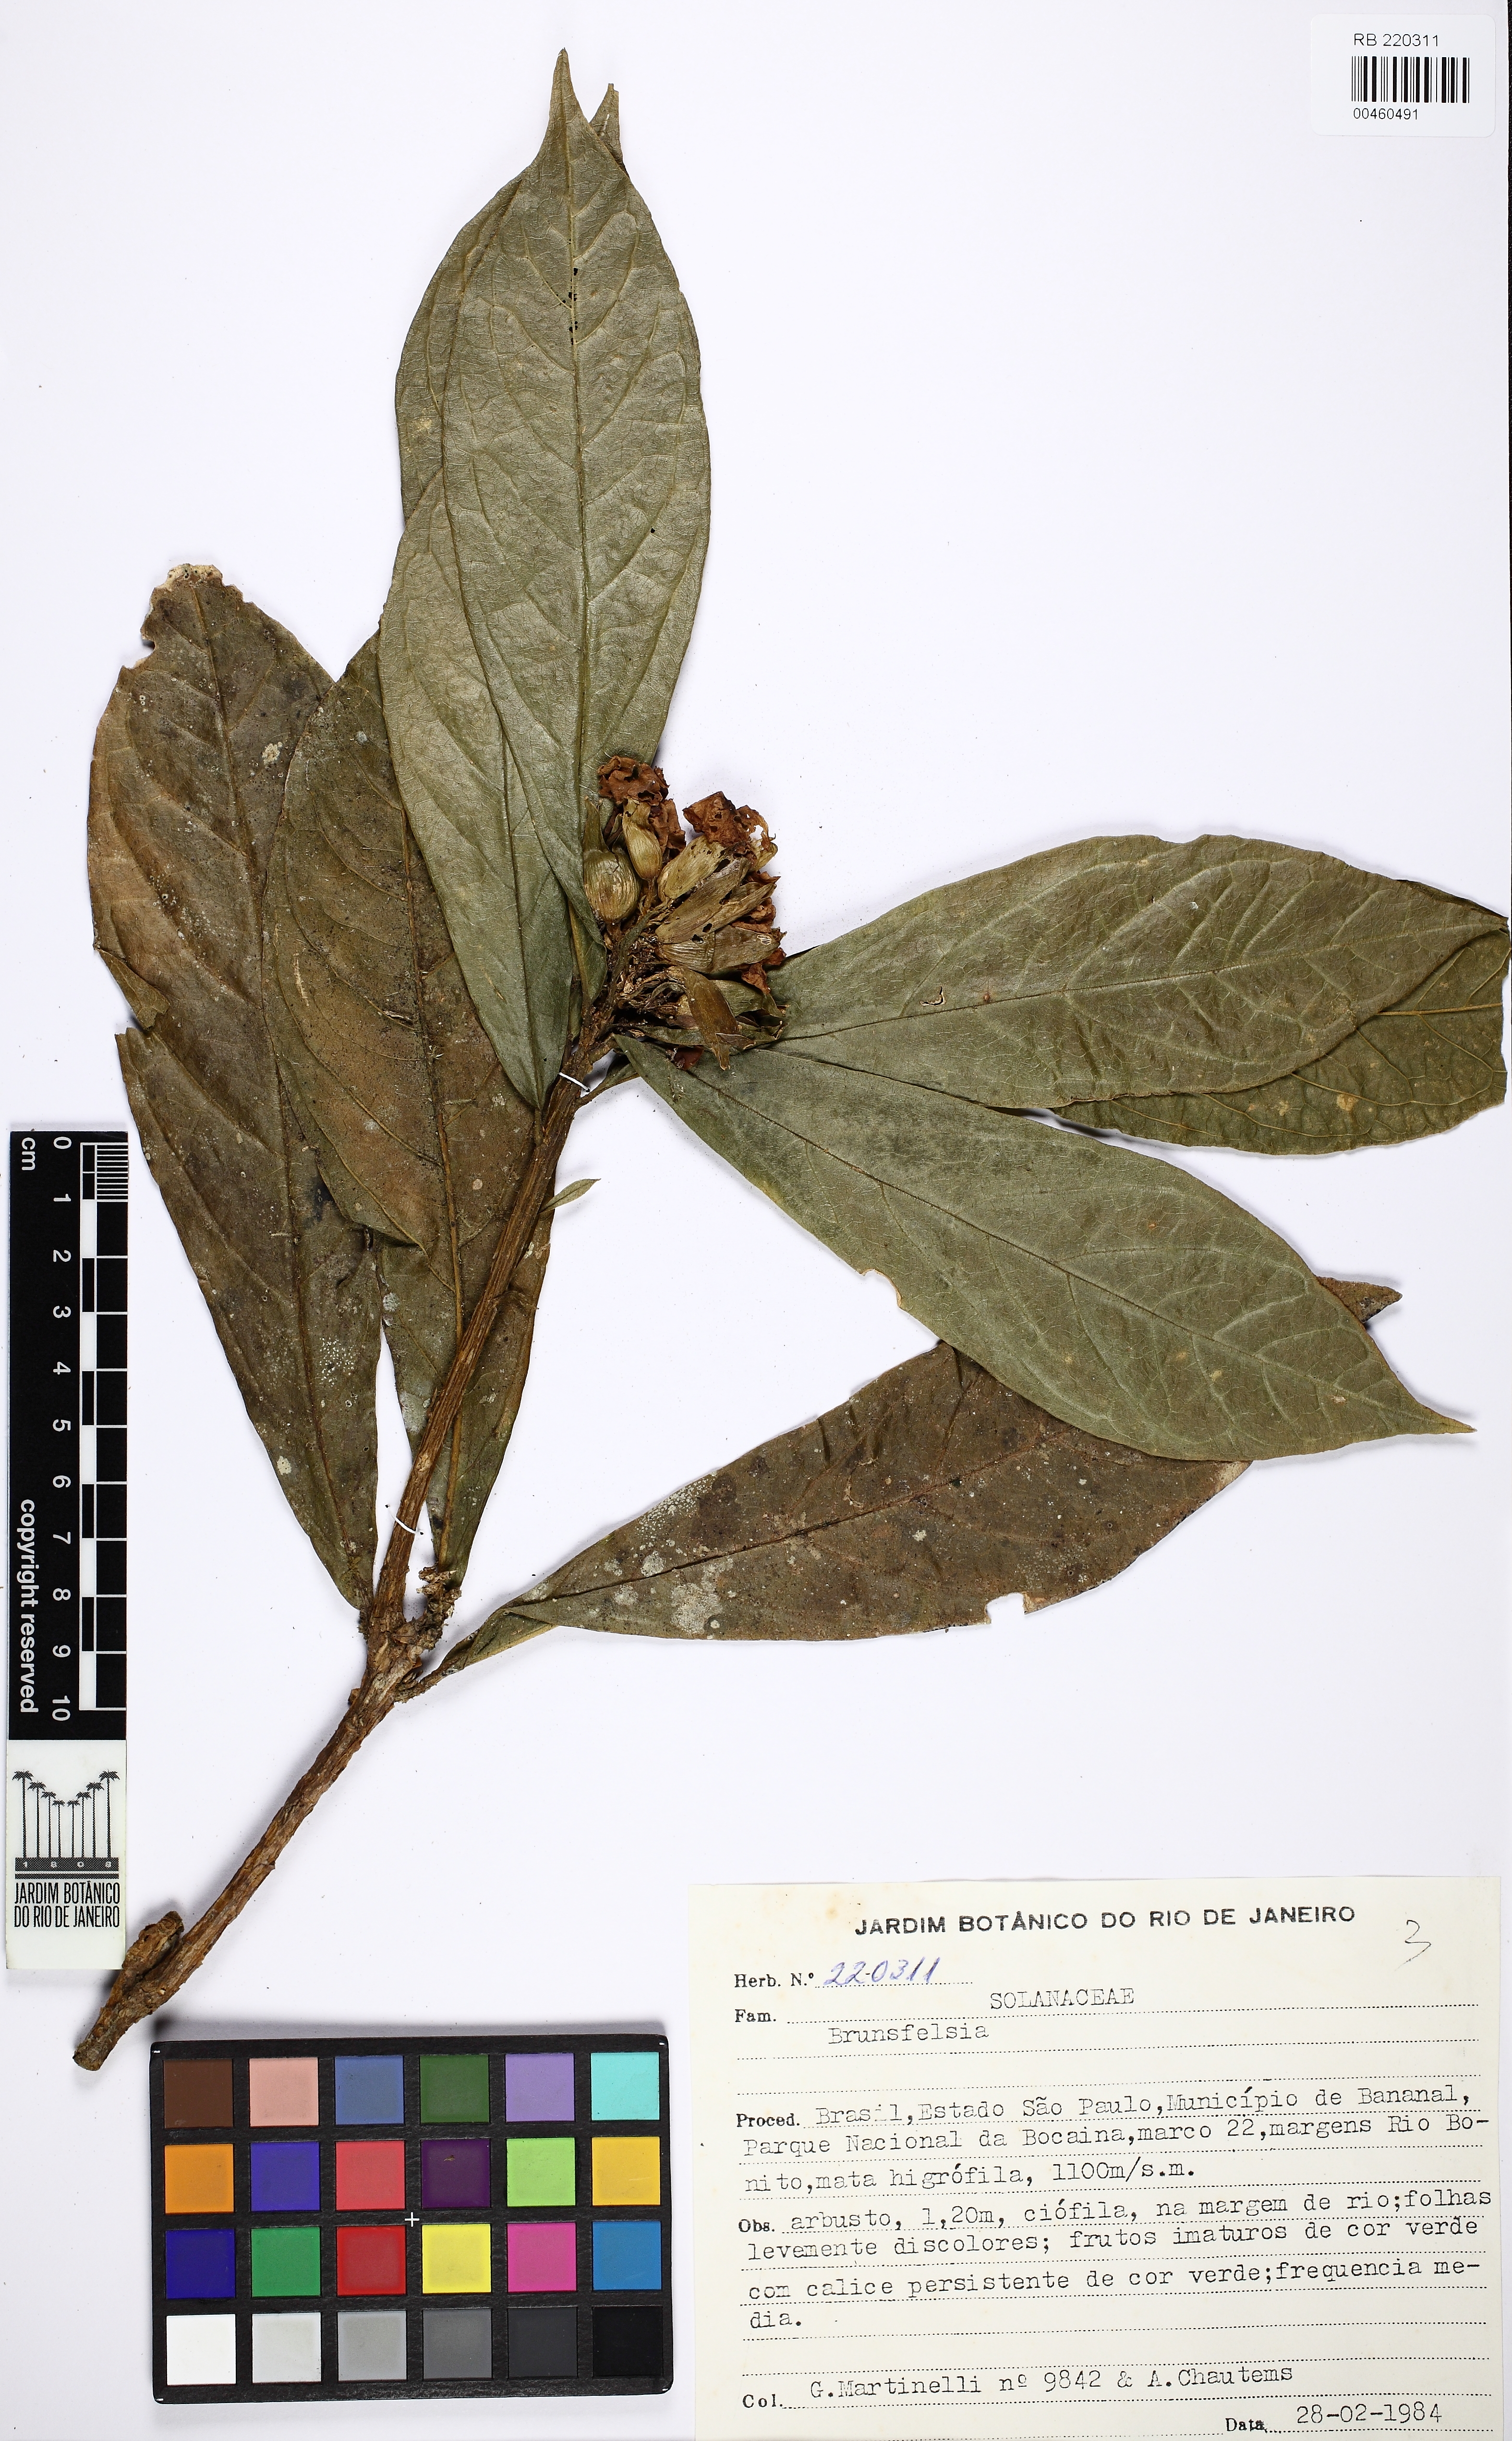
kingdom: Plantae
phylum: Tracheophyta
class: Magnoliopsida
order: Solanales
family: Solanaceae
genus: Brunfelsia
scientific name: Brunfelsia hydrangeiformis
